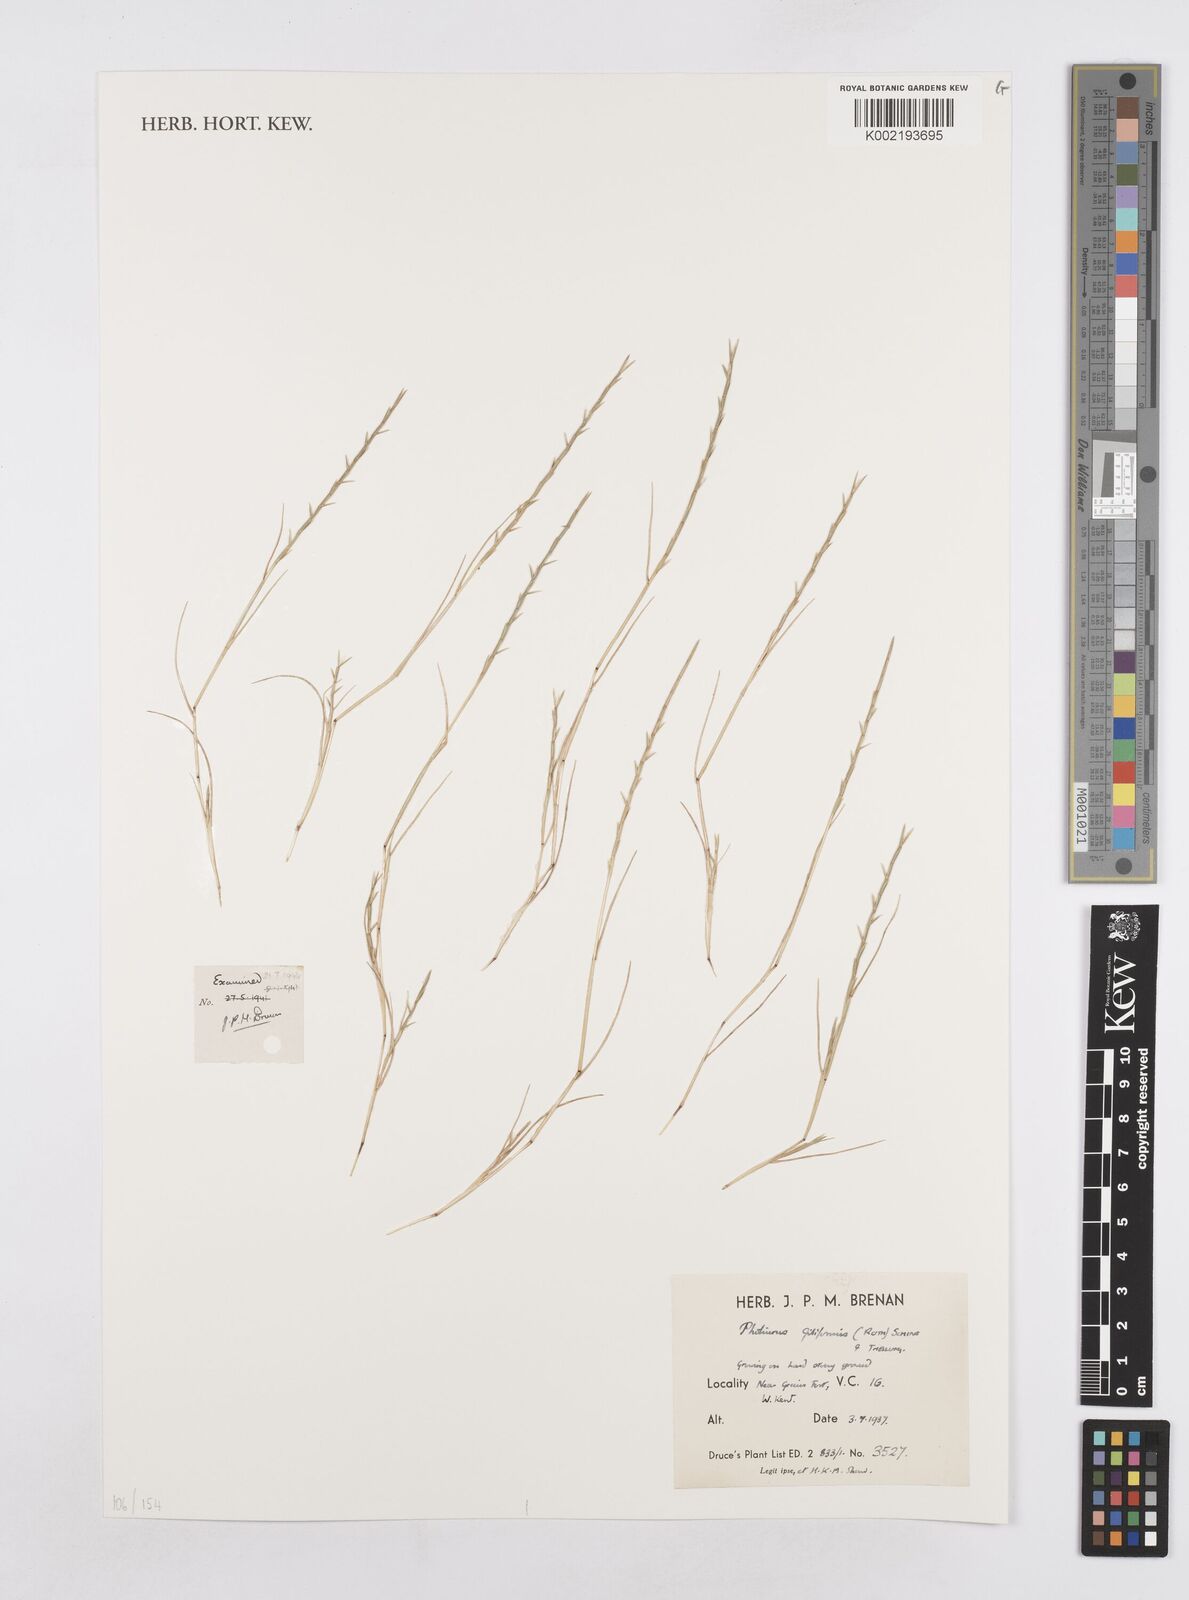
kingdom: Plantae
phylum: Tracheophyta
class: Liliopsida
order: Poales
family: Poaceae
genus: Parapholis
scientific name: Parapholis strigosa
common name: Hard-grass
